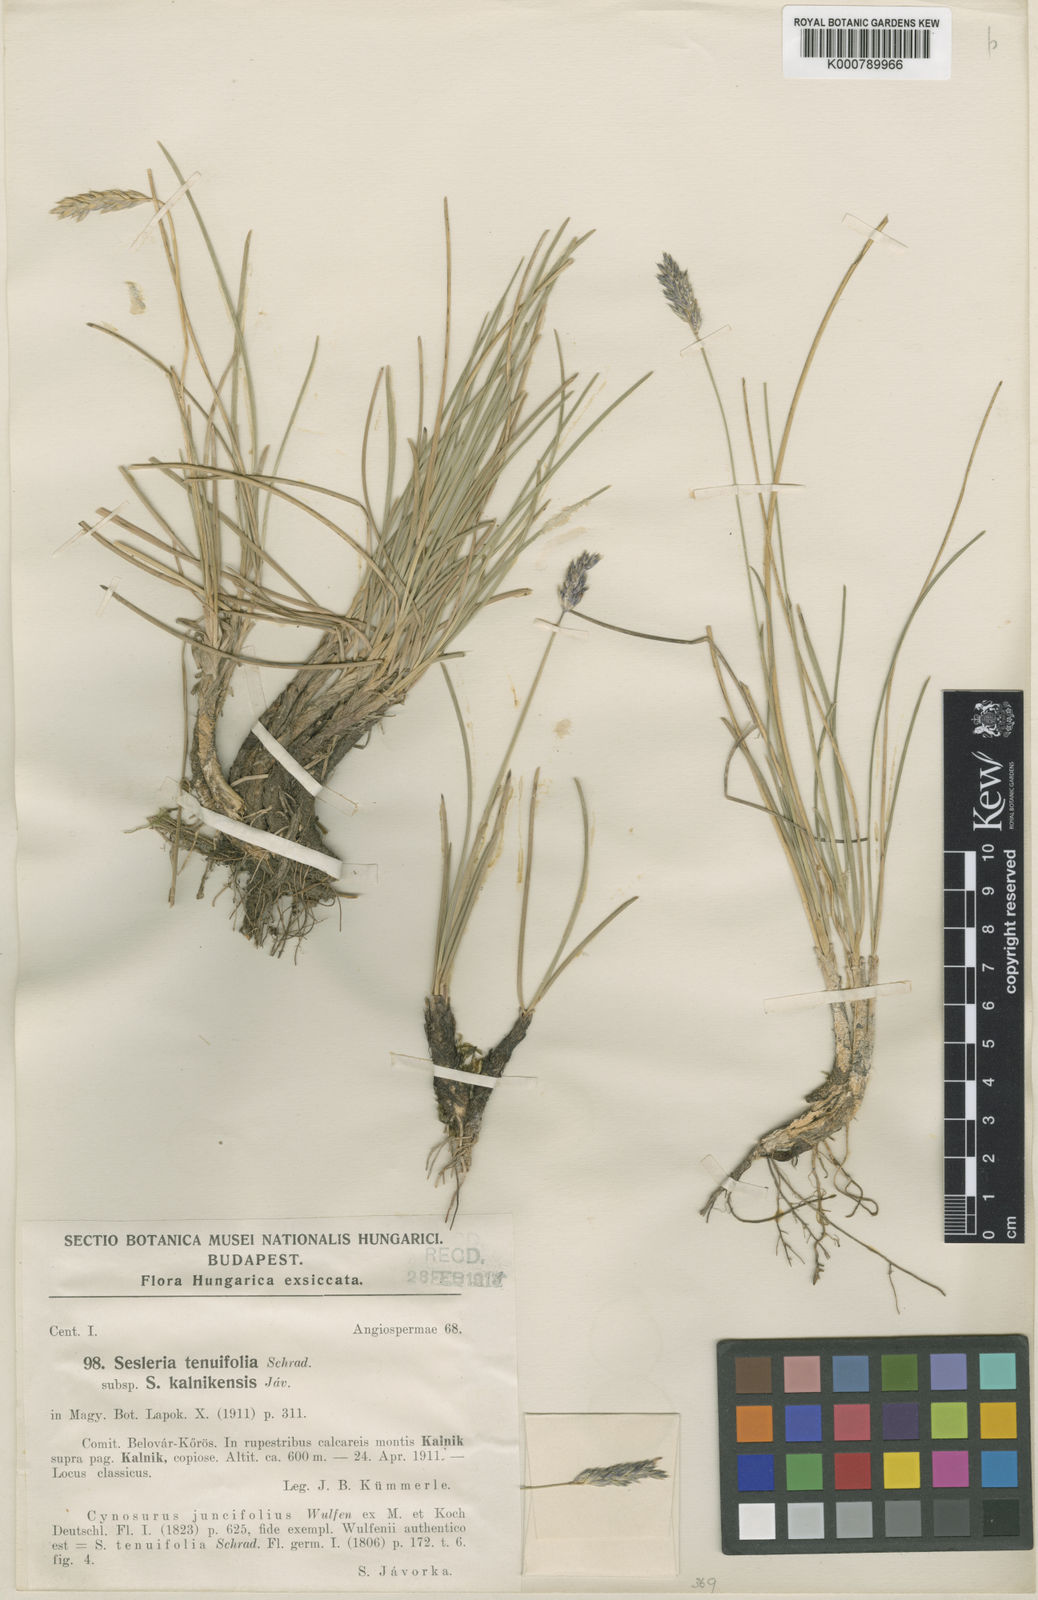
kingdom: Plantae
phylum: Tracheophyta
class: Liliopsida
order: Poales
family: Poaceae
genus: Sesleria
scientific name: Sesleria juncifolia
